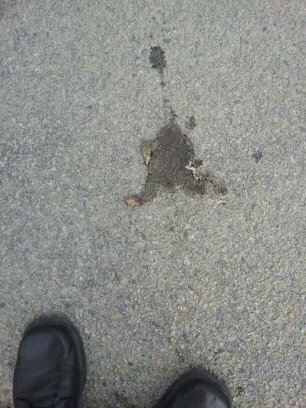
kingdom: Animalia
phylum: Chordata
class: Amphibia
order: Anura
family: Bufonidae
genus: Bufo
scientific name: Bufo bufo
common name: Common toad
